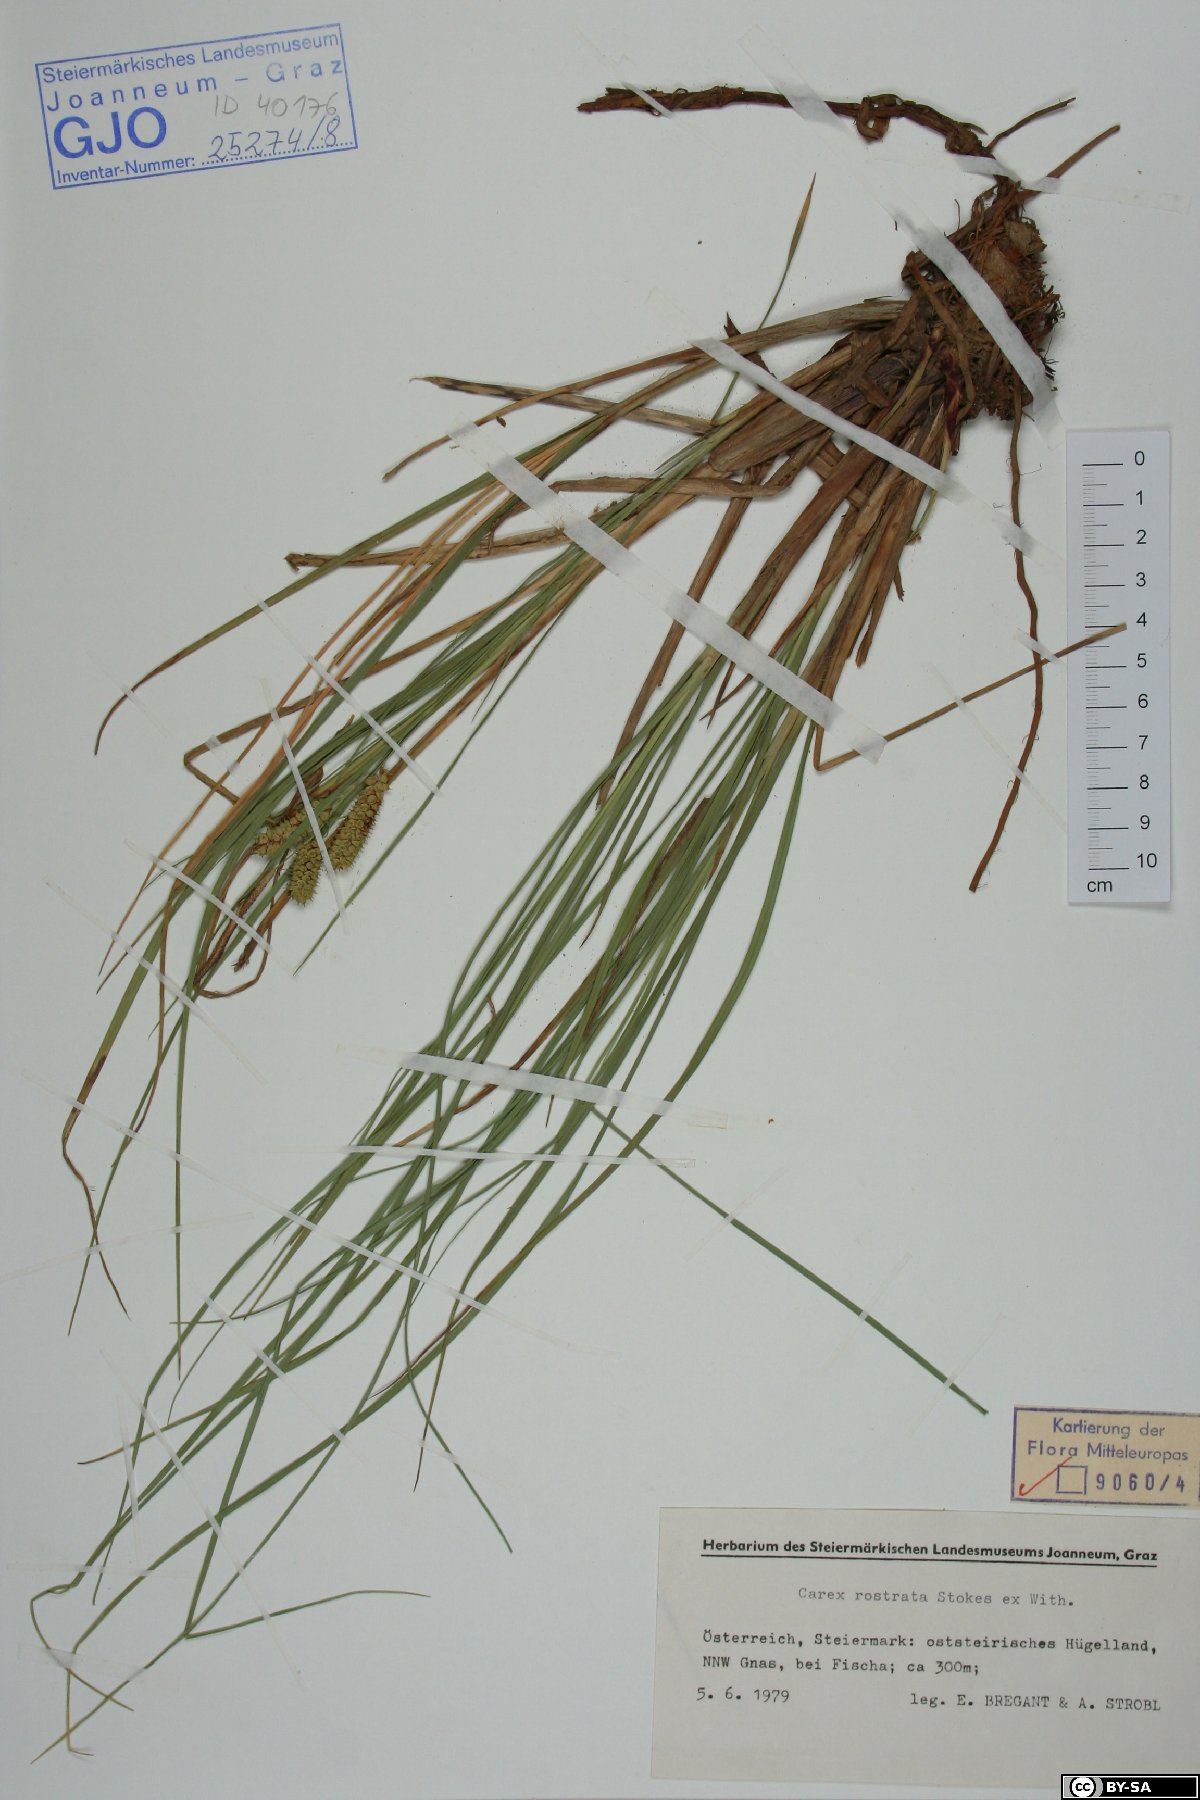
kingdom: Plantae
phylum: Tracheophyta
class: Liliopsida
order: Poales
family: Cyperaceae
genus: Carex
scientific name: Carex rostrata
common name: Bottle sedge
